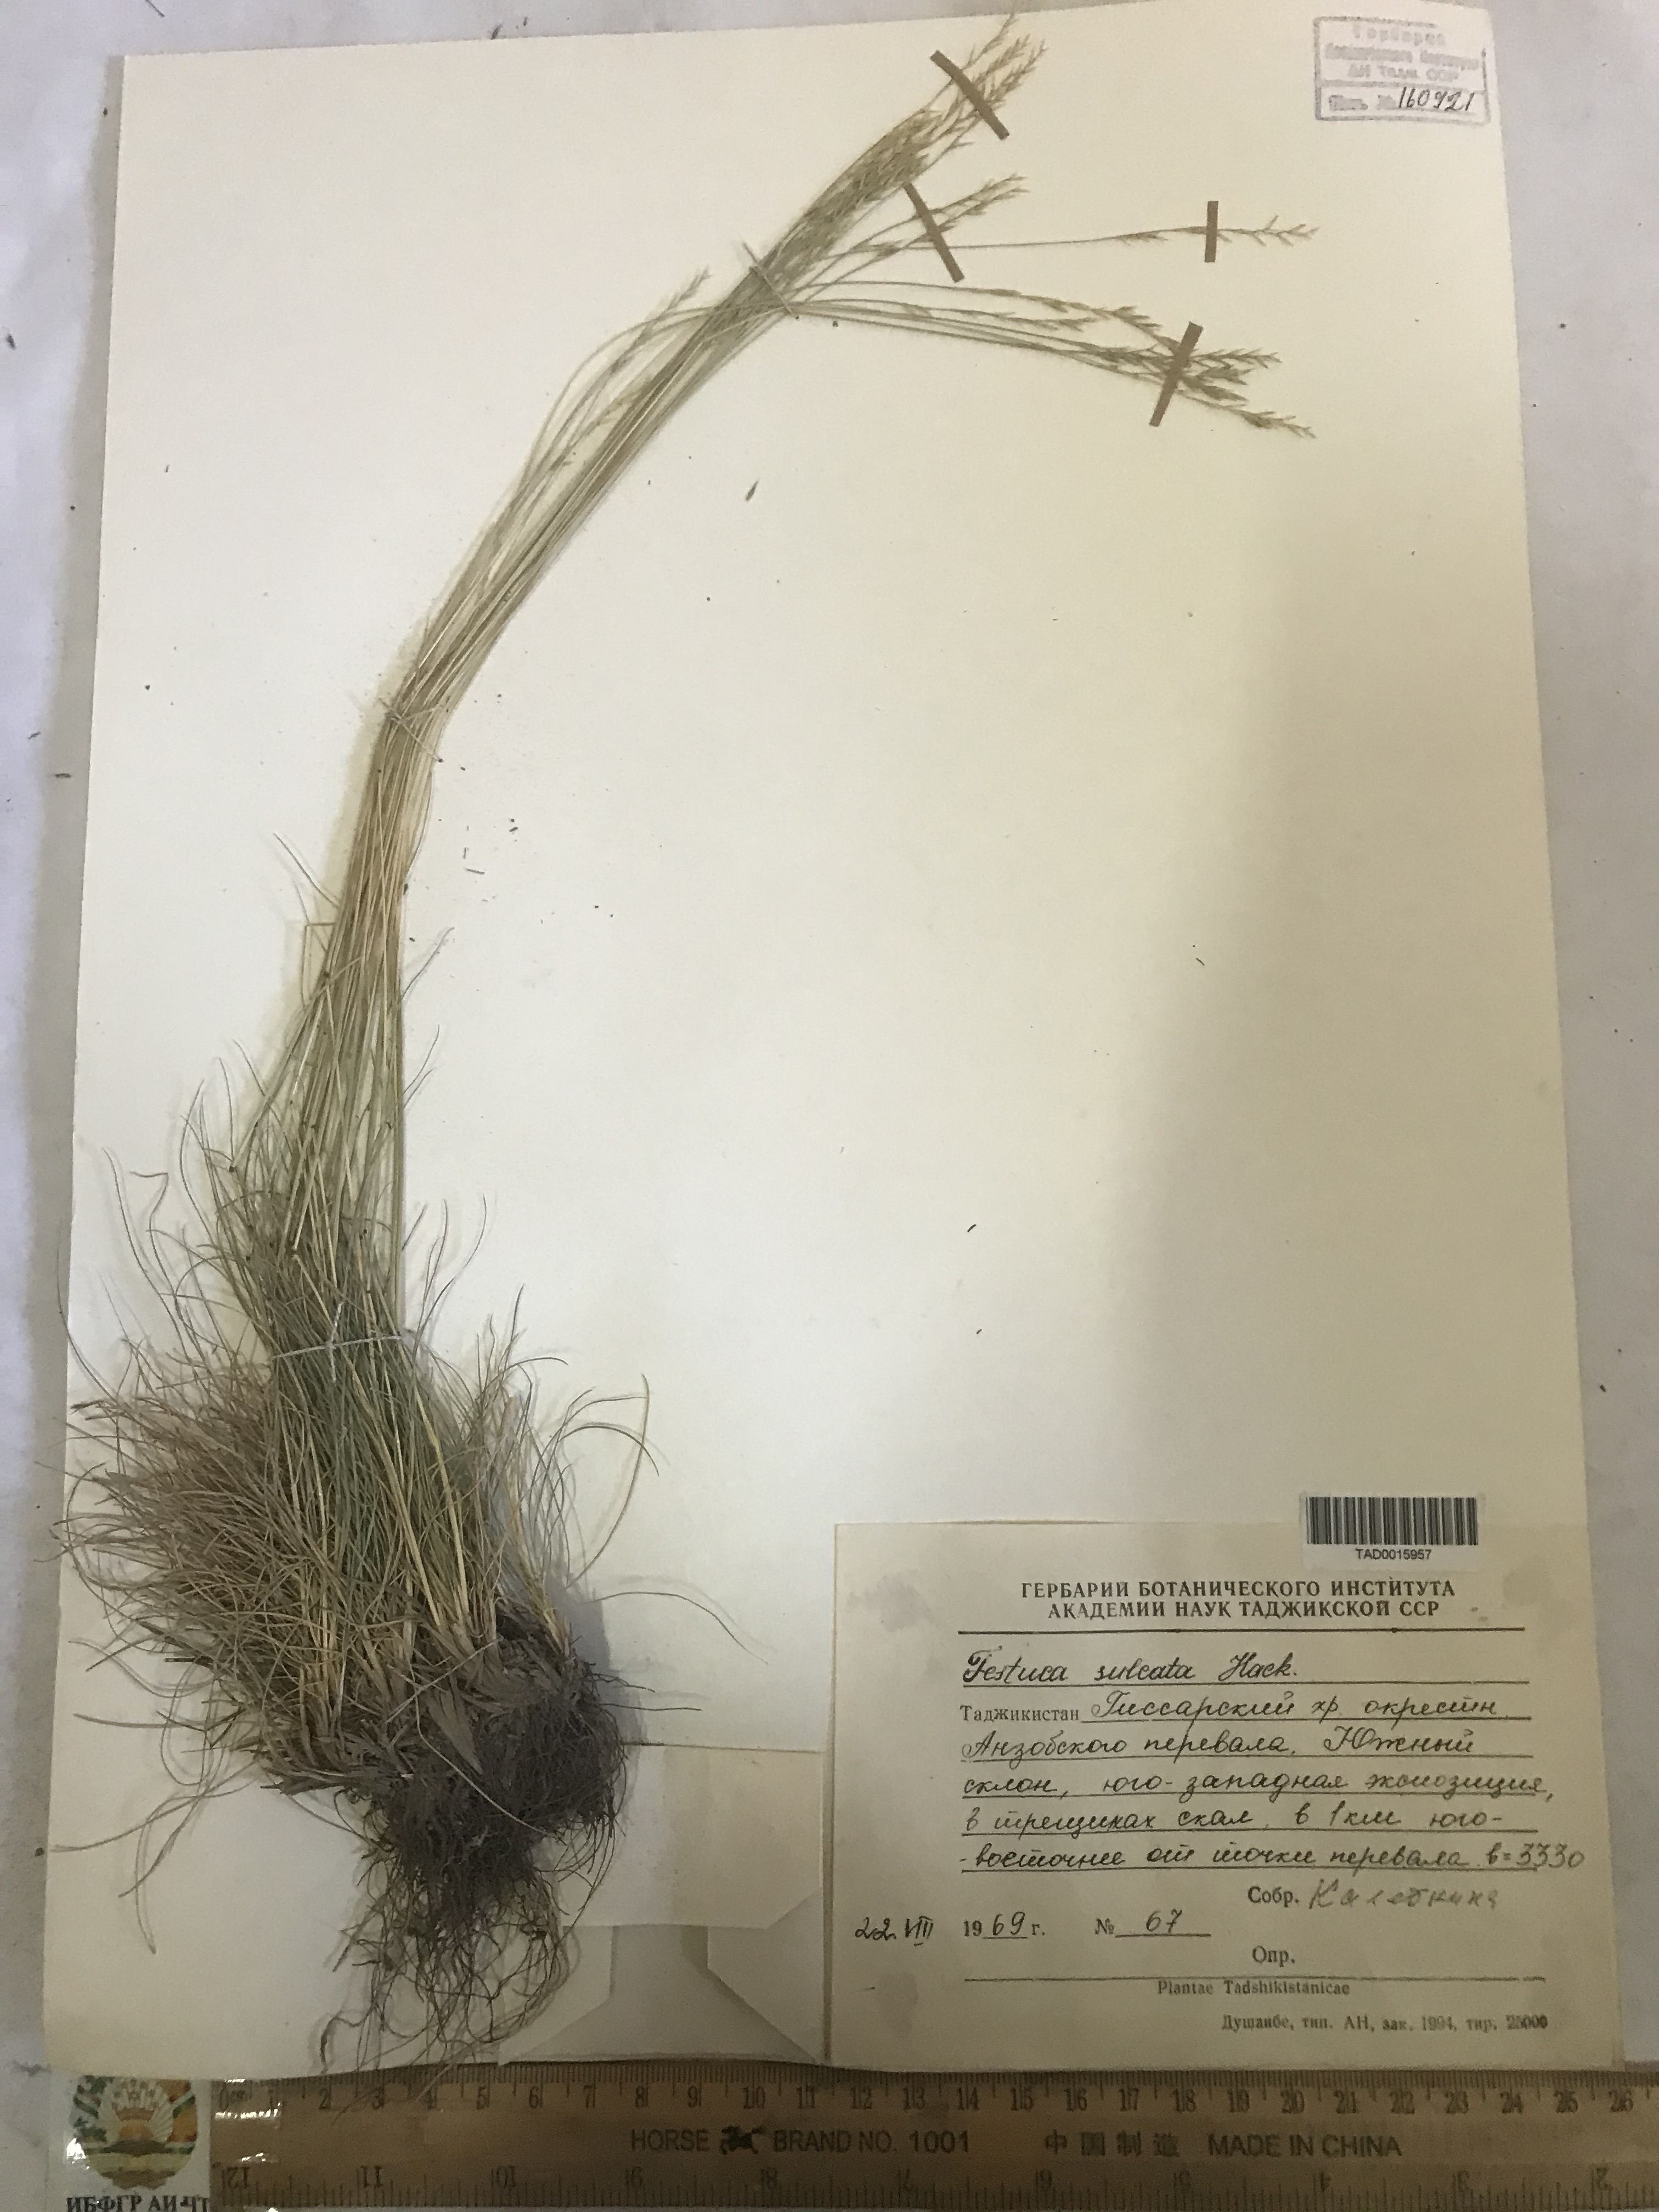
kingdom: Plantae
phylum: Tracheophyta
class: Liliopsida
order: Poales
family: Poaceae
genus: Festuca
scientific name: Festuca sulcata
